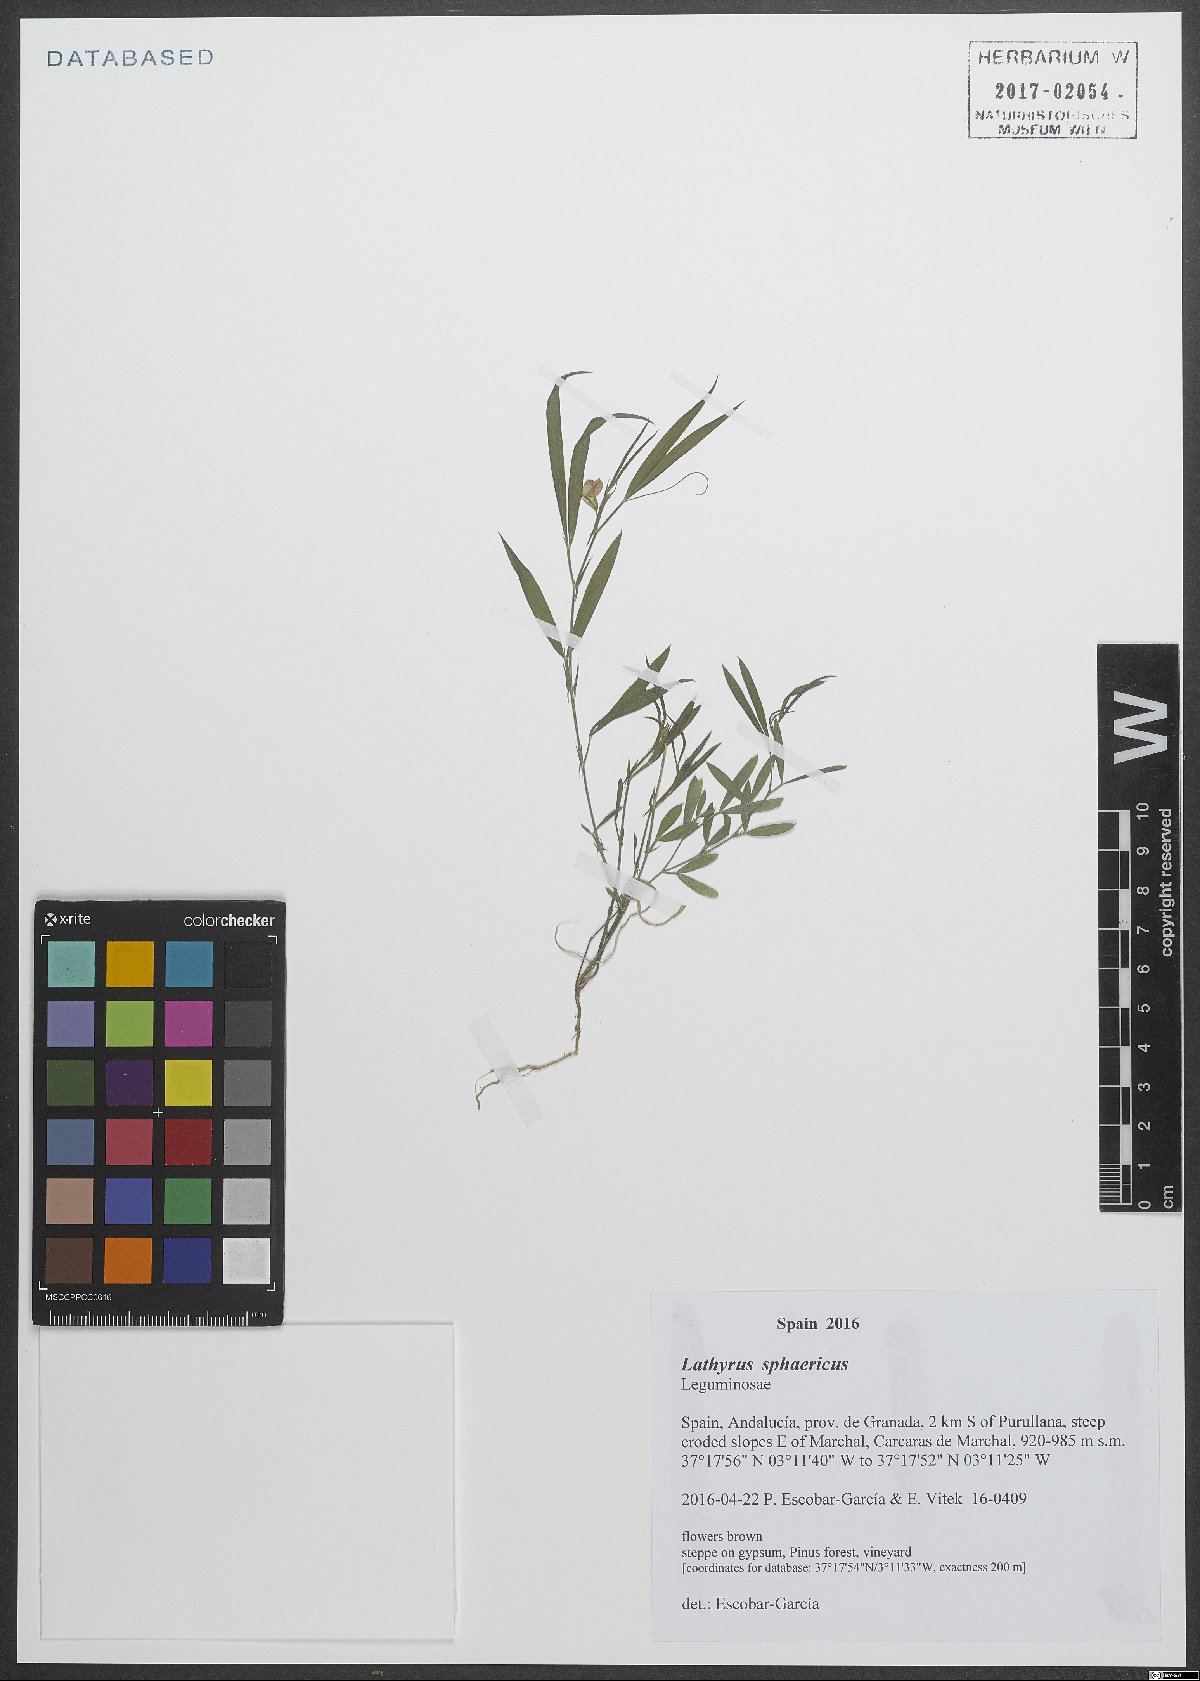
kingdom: Plantae
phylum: Tracheophyta
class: Magnoliopsida
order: Fabales
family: Fabaceae
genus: Lathyrus
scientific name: Lathyrus sphaericus
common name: Grass pea
